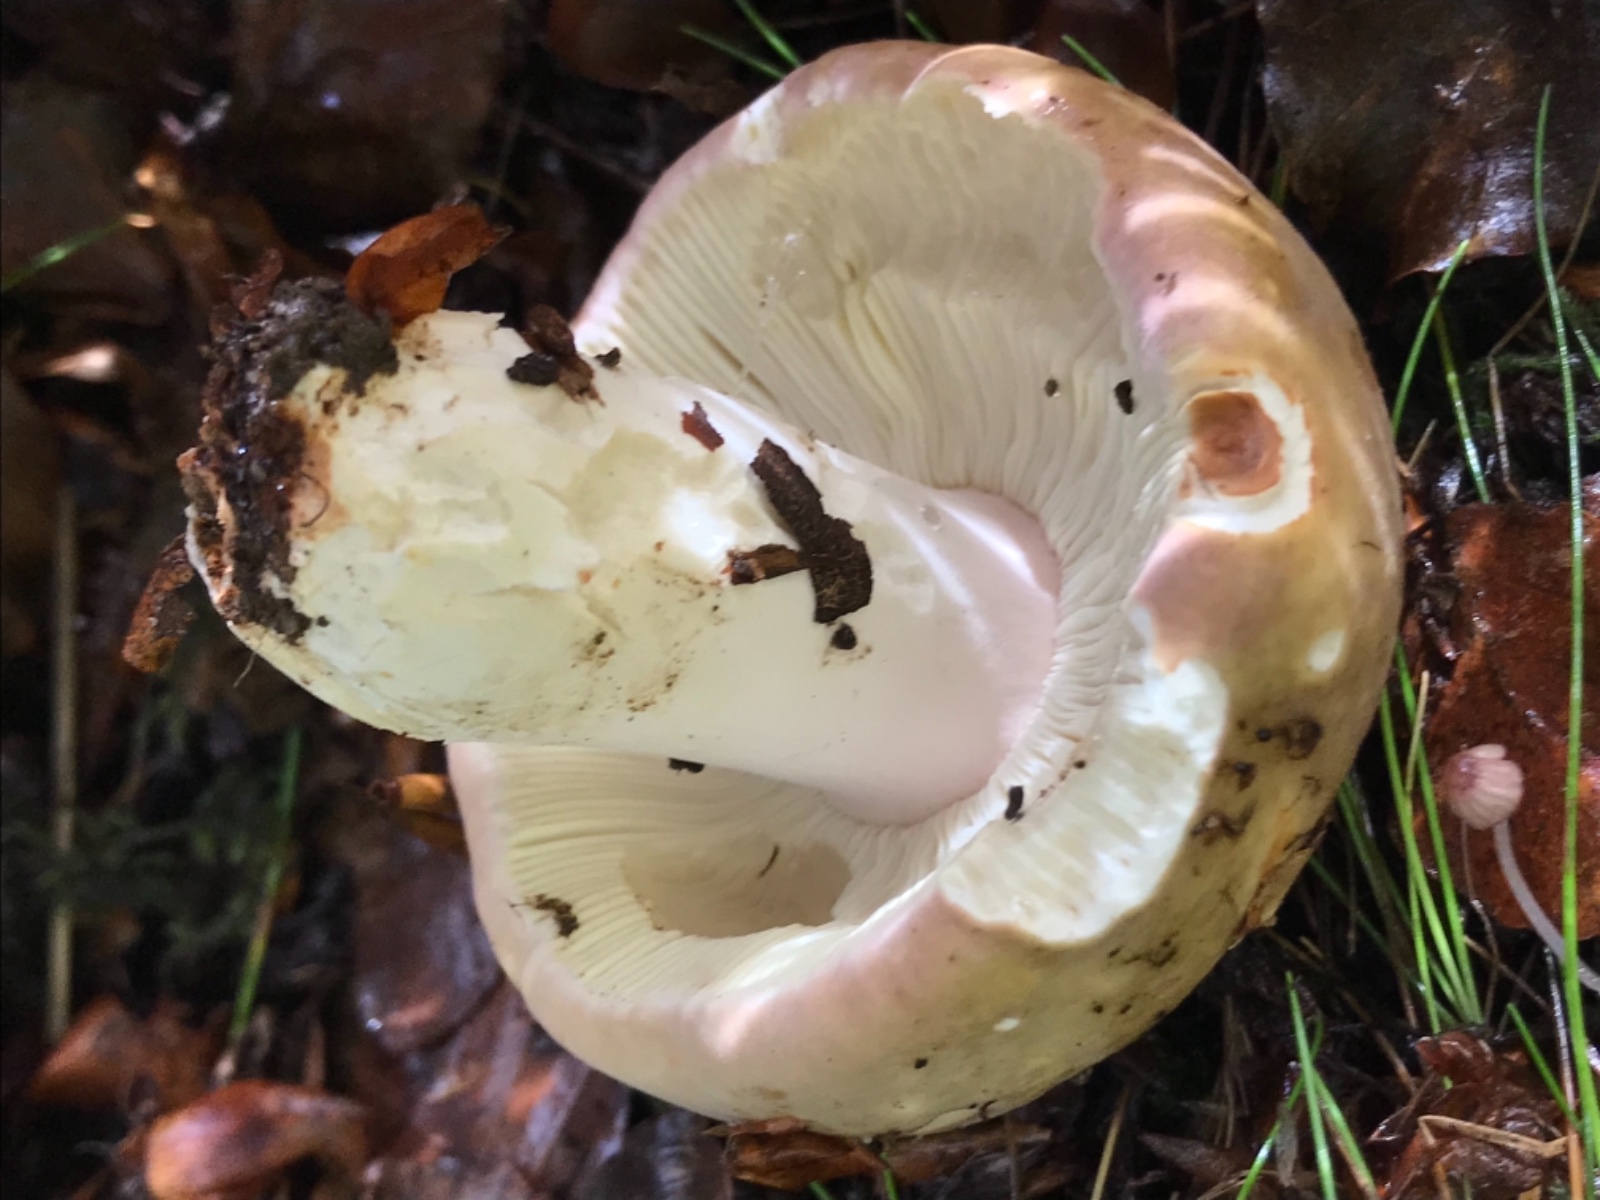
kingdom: Fungi
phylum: Basidiomycota
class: Agaricomycetes
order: Russulales
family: Russulaceae
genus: Russula
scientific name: Russula olivacea
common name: stor skørhat
